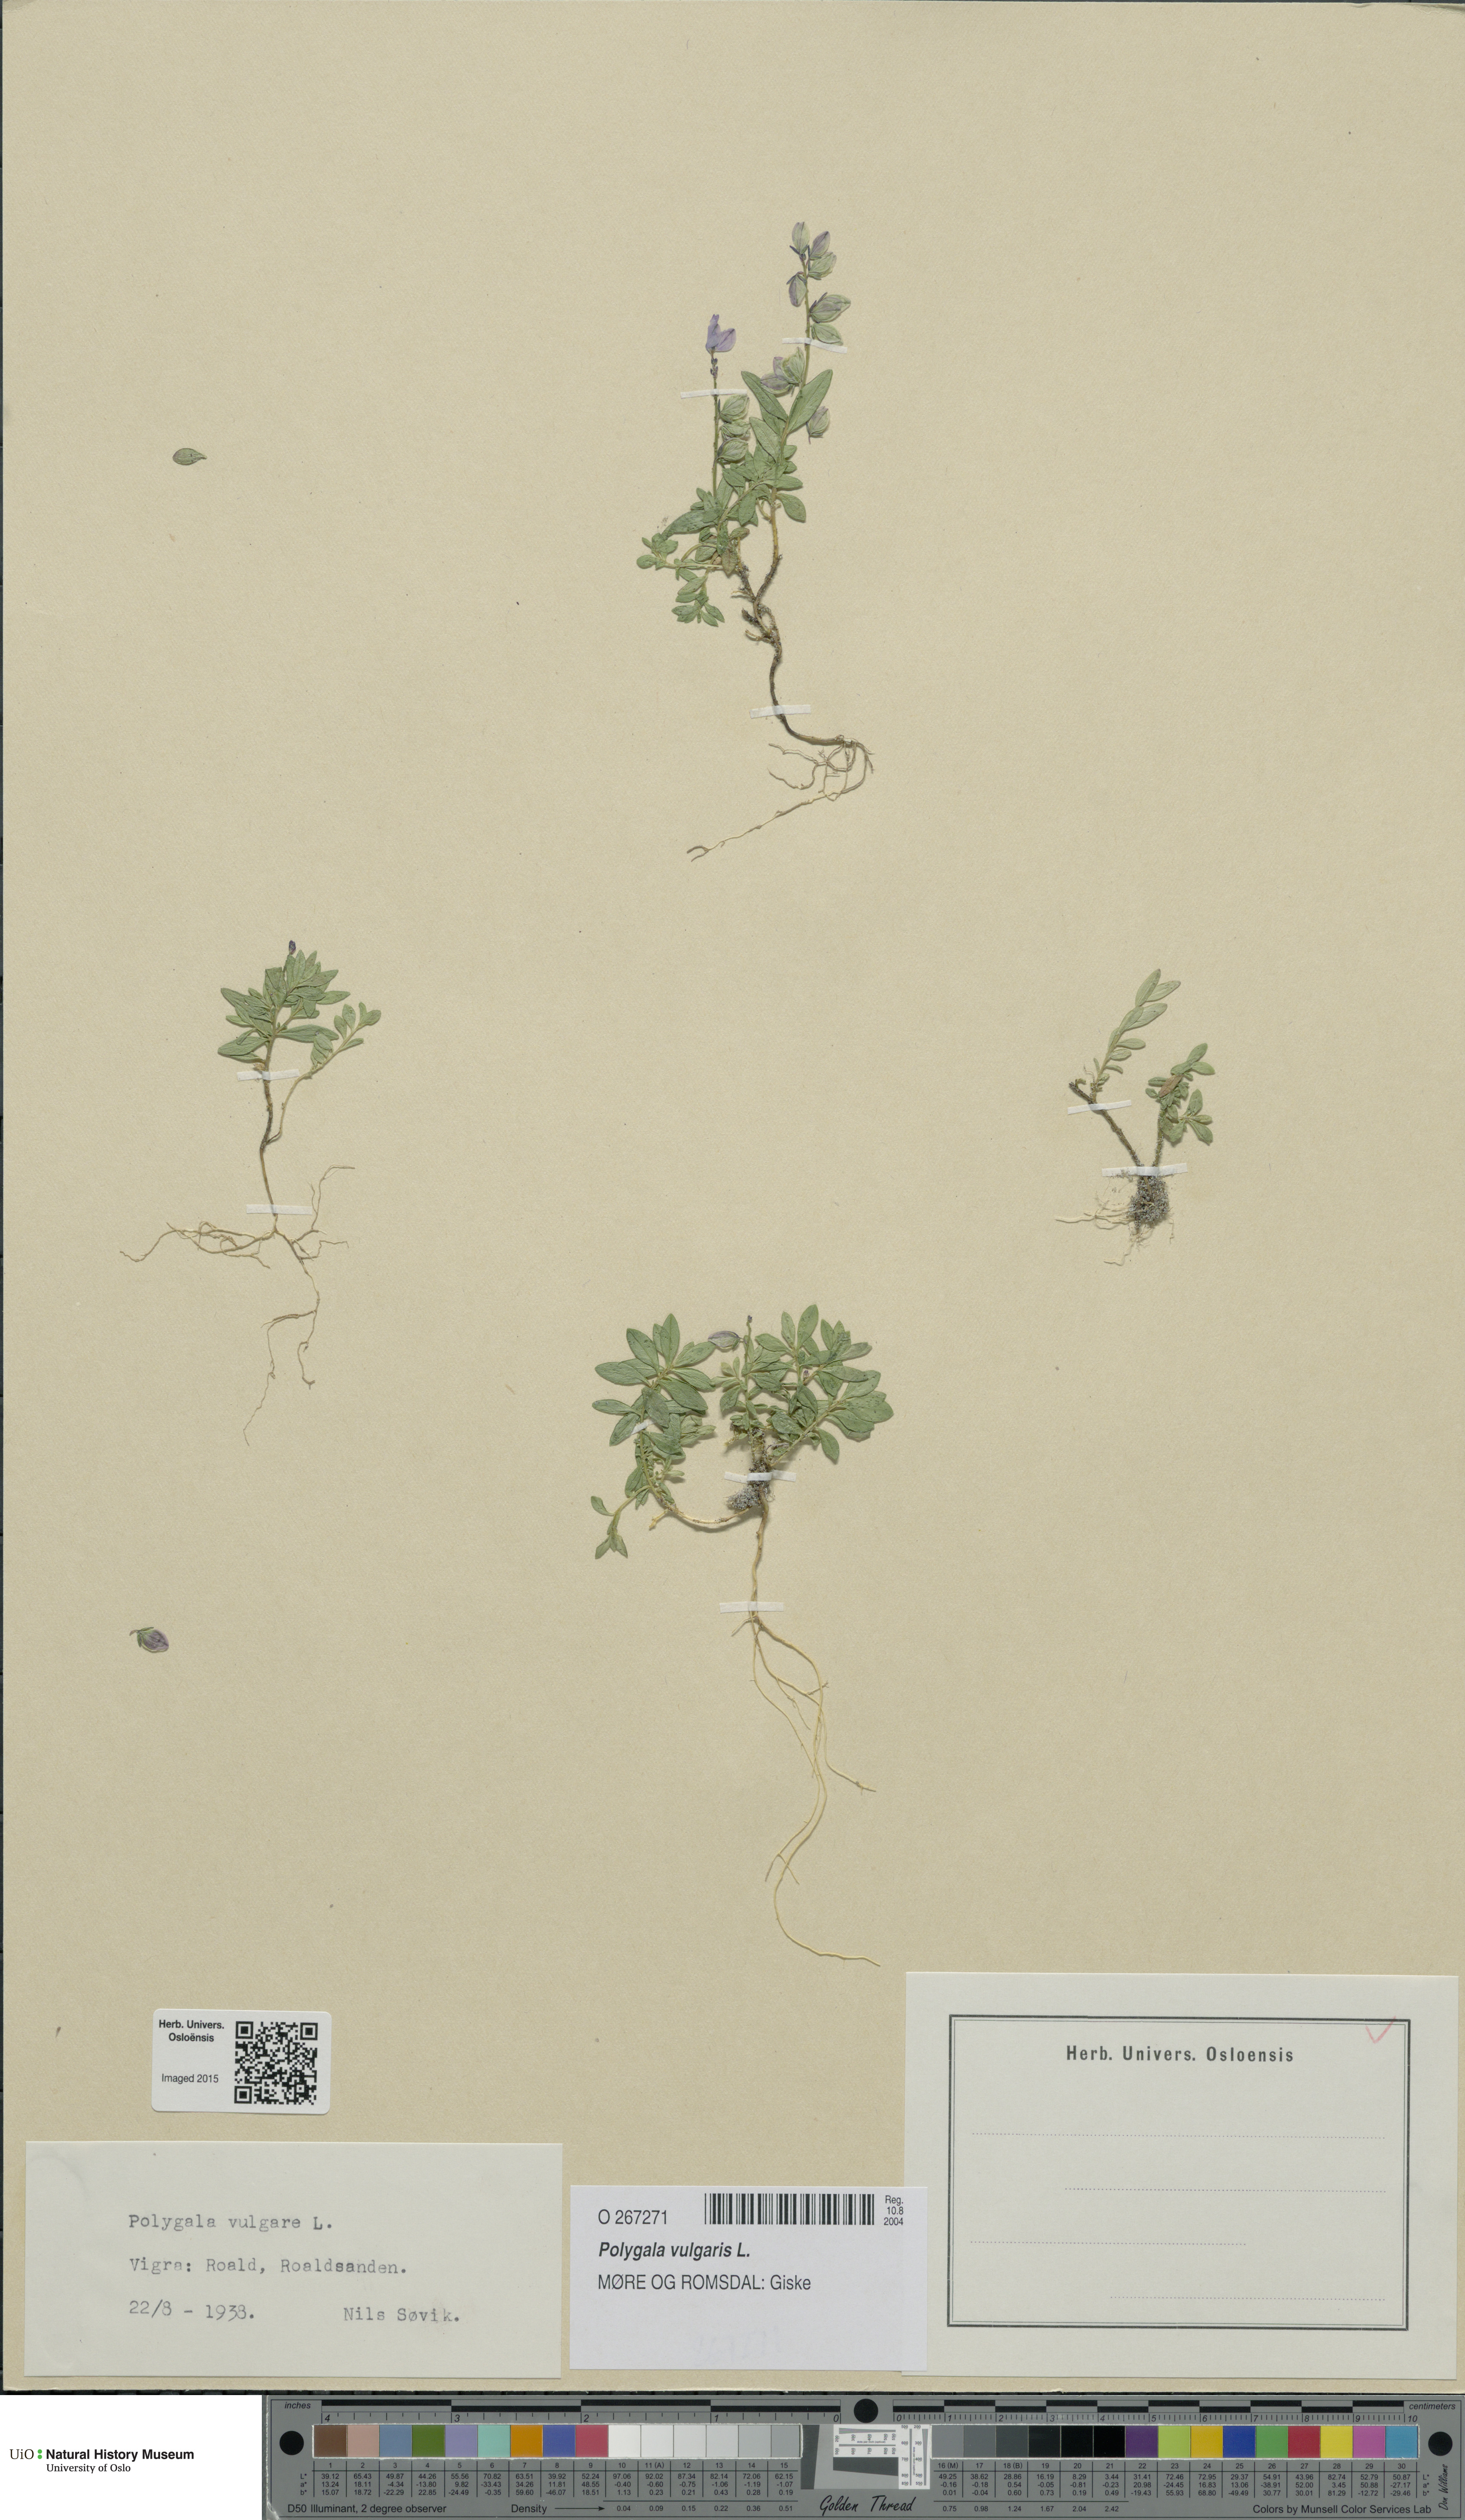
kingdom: Plantae
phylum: Tracheophyta
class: Magnoliopsida
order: Fabales
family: Polygalaceae
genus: Polygala
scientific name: Polygala vulgaris
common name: Common milkwort
